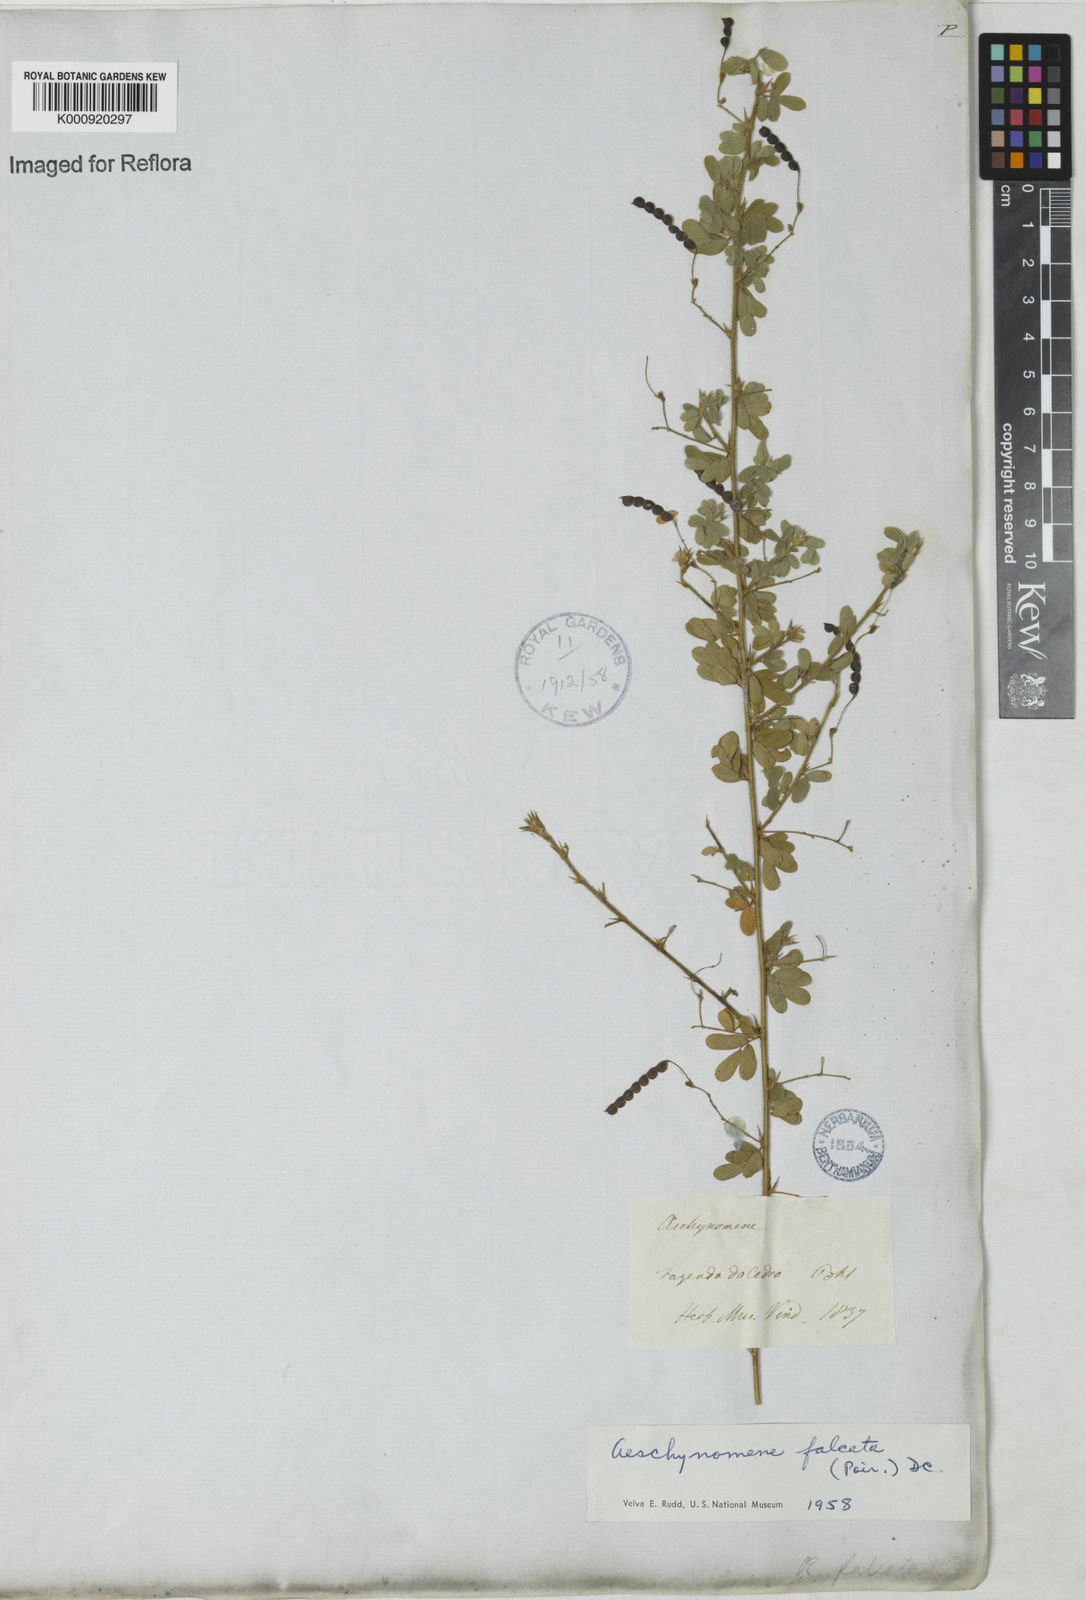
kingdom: Plantae
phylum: Tracheophyta
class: Magnoliopsida
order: Fabales
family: Fabaceae
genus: Aeschynomene
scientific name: Aeschynomene
